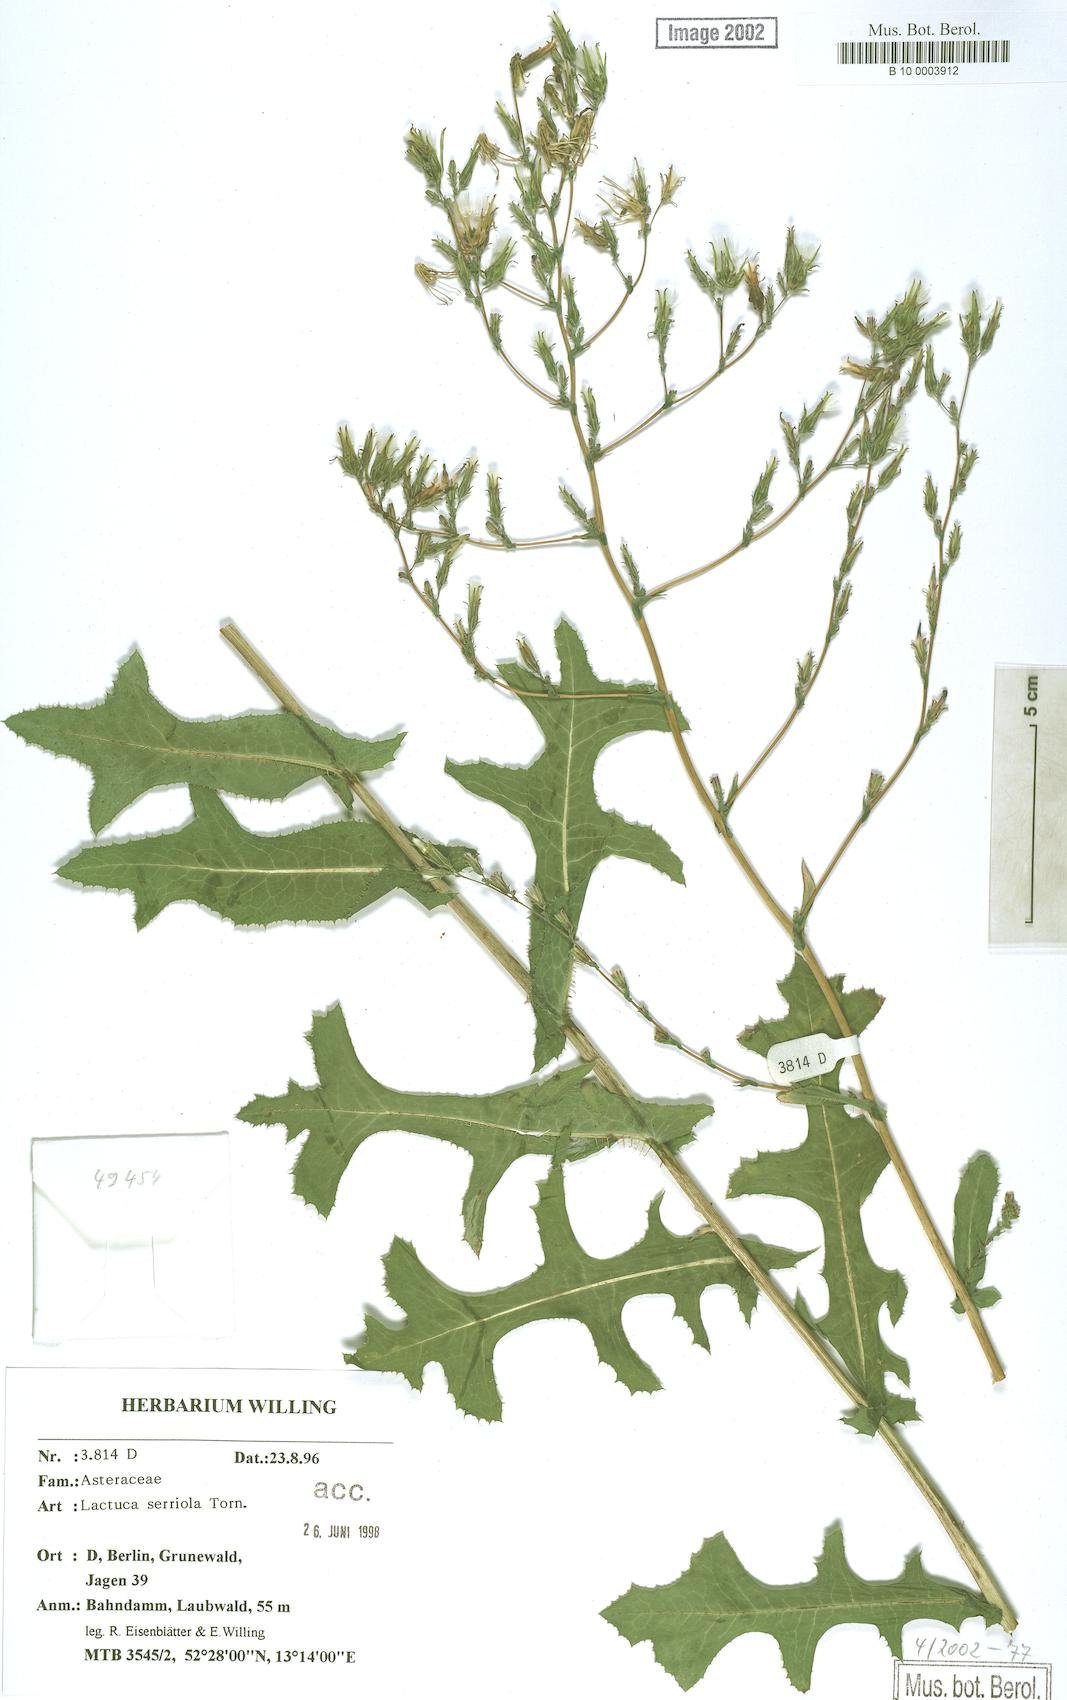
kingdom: Plantae
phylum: Tracheophyta
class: Magnoliopsida
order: Asterales
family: Asteraceae
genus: Lactuca
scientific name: Lactuca serriola
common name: Prickly lettuce
